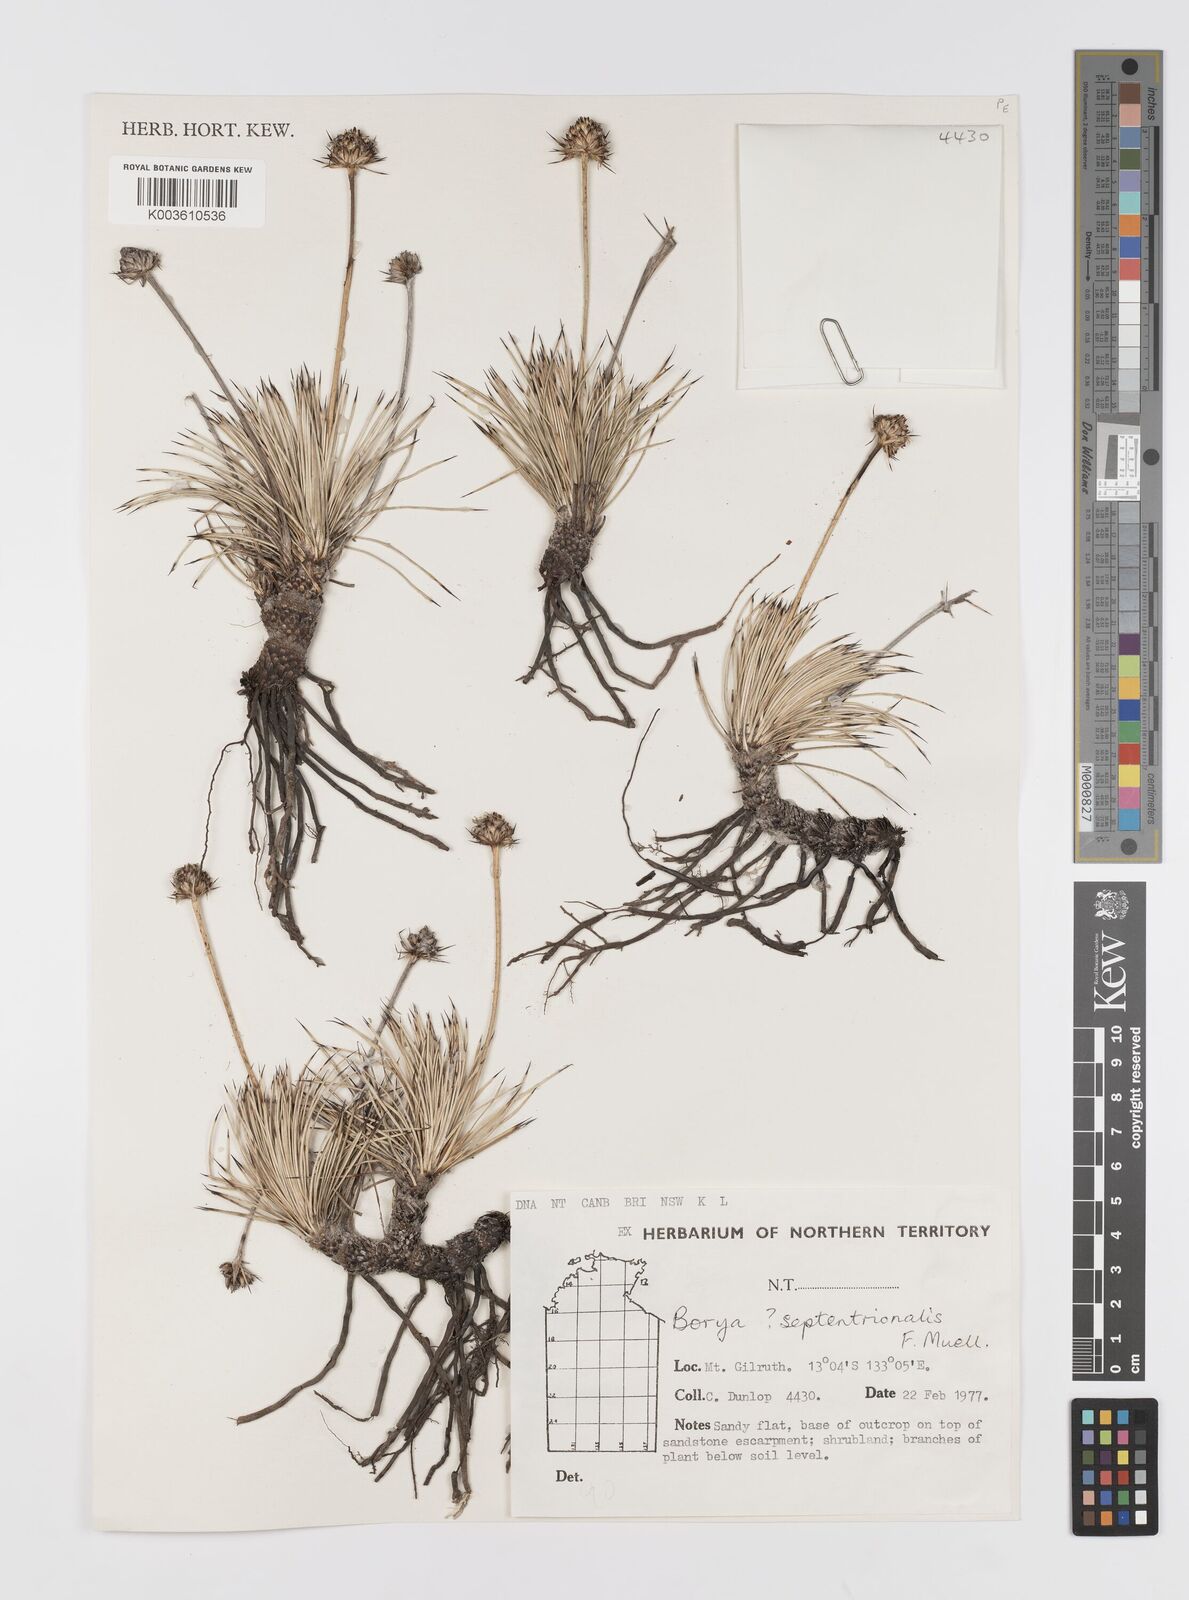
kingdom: Plantae
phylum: Tracheophyta
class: Liliopsida
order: Asparagales
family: Boryaceae
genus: Borya
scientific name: Borya septentrionalis
